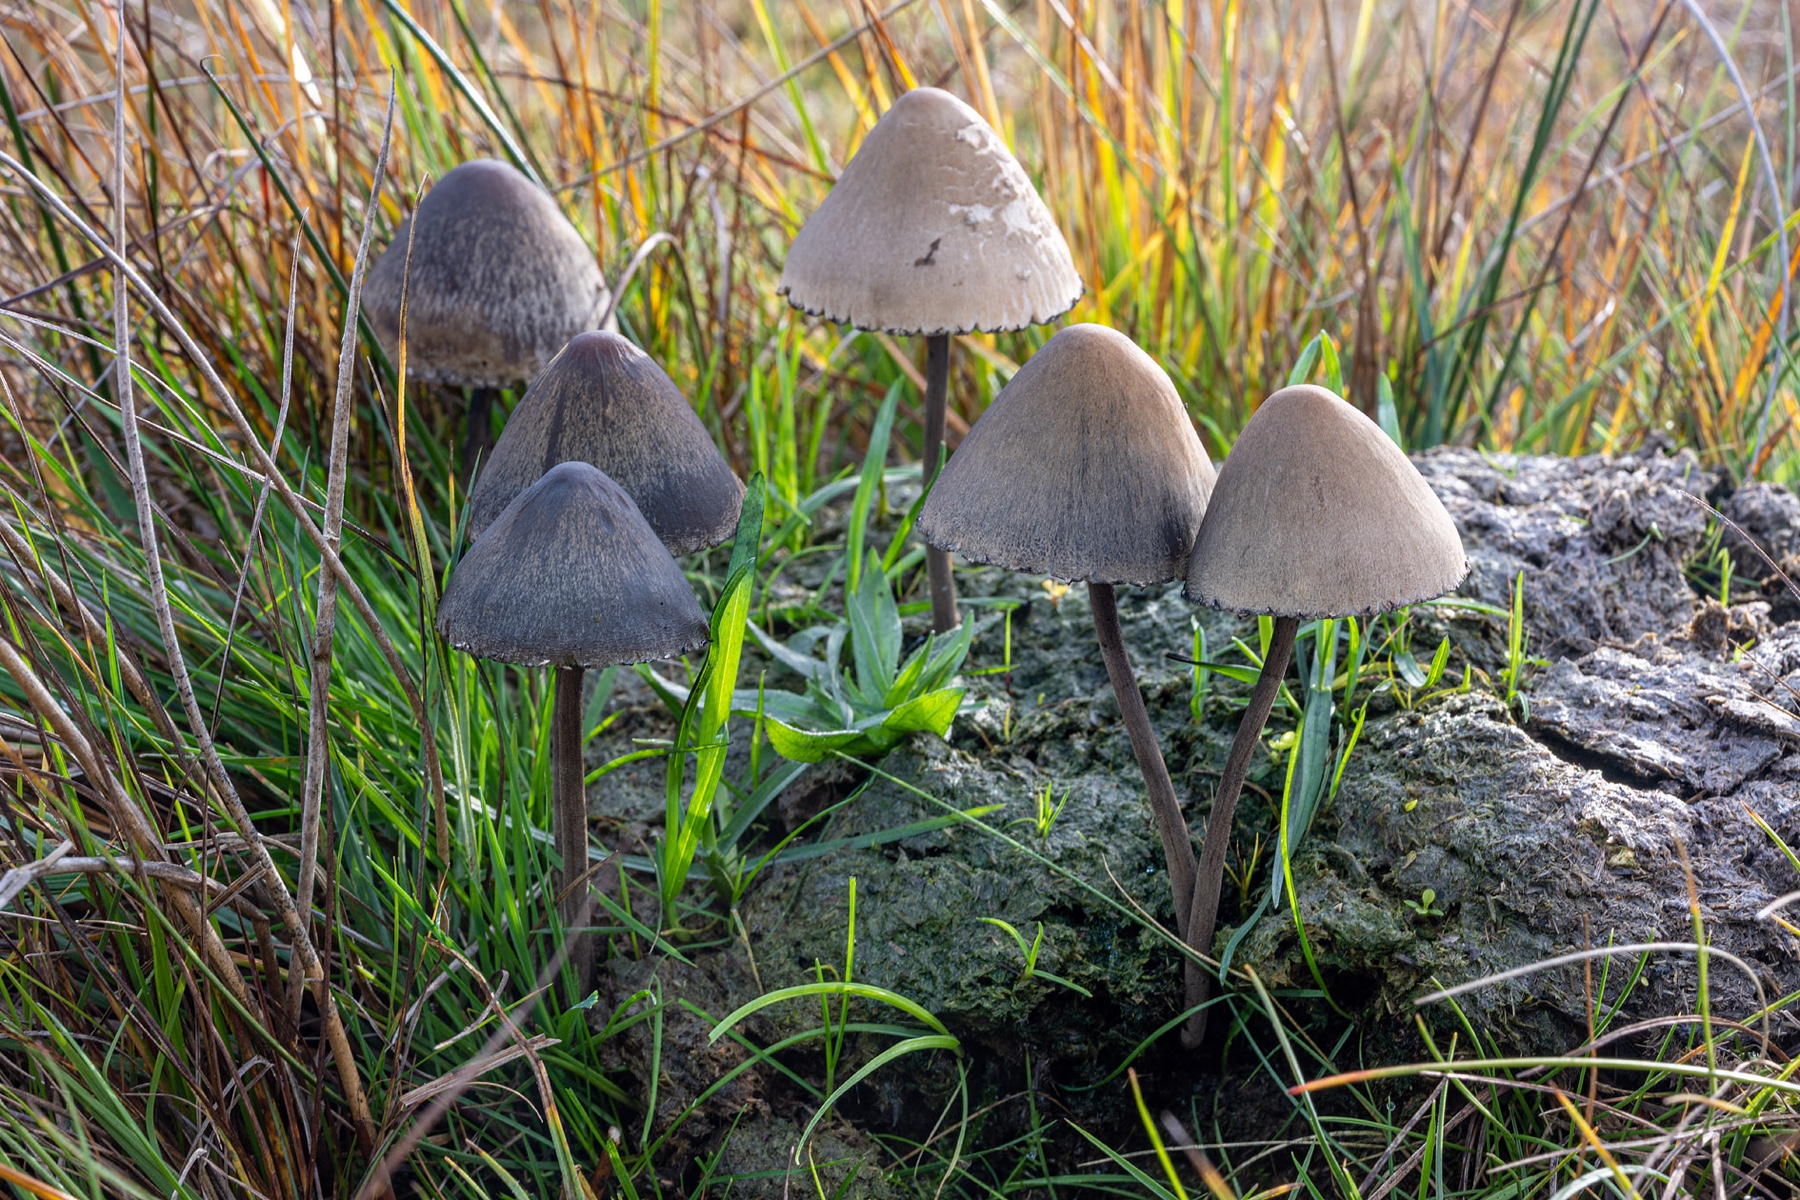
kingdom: Fungi
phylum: Basidiomycota
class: Agaricomycetes
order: Agaricales
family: Bolbitiaceae
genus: Panaeolus
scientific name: Panaeolus papilionaceus
